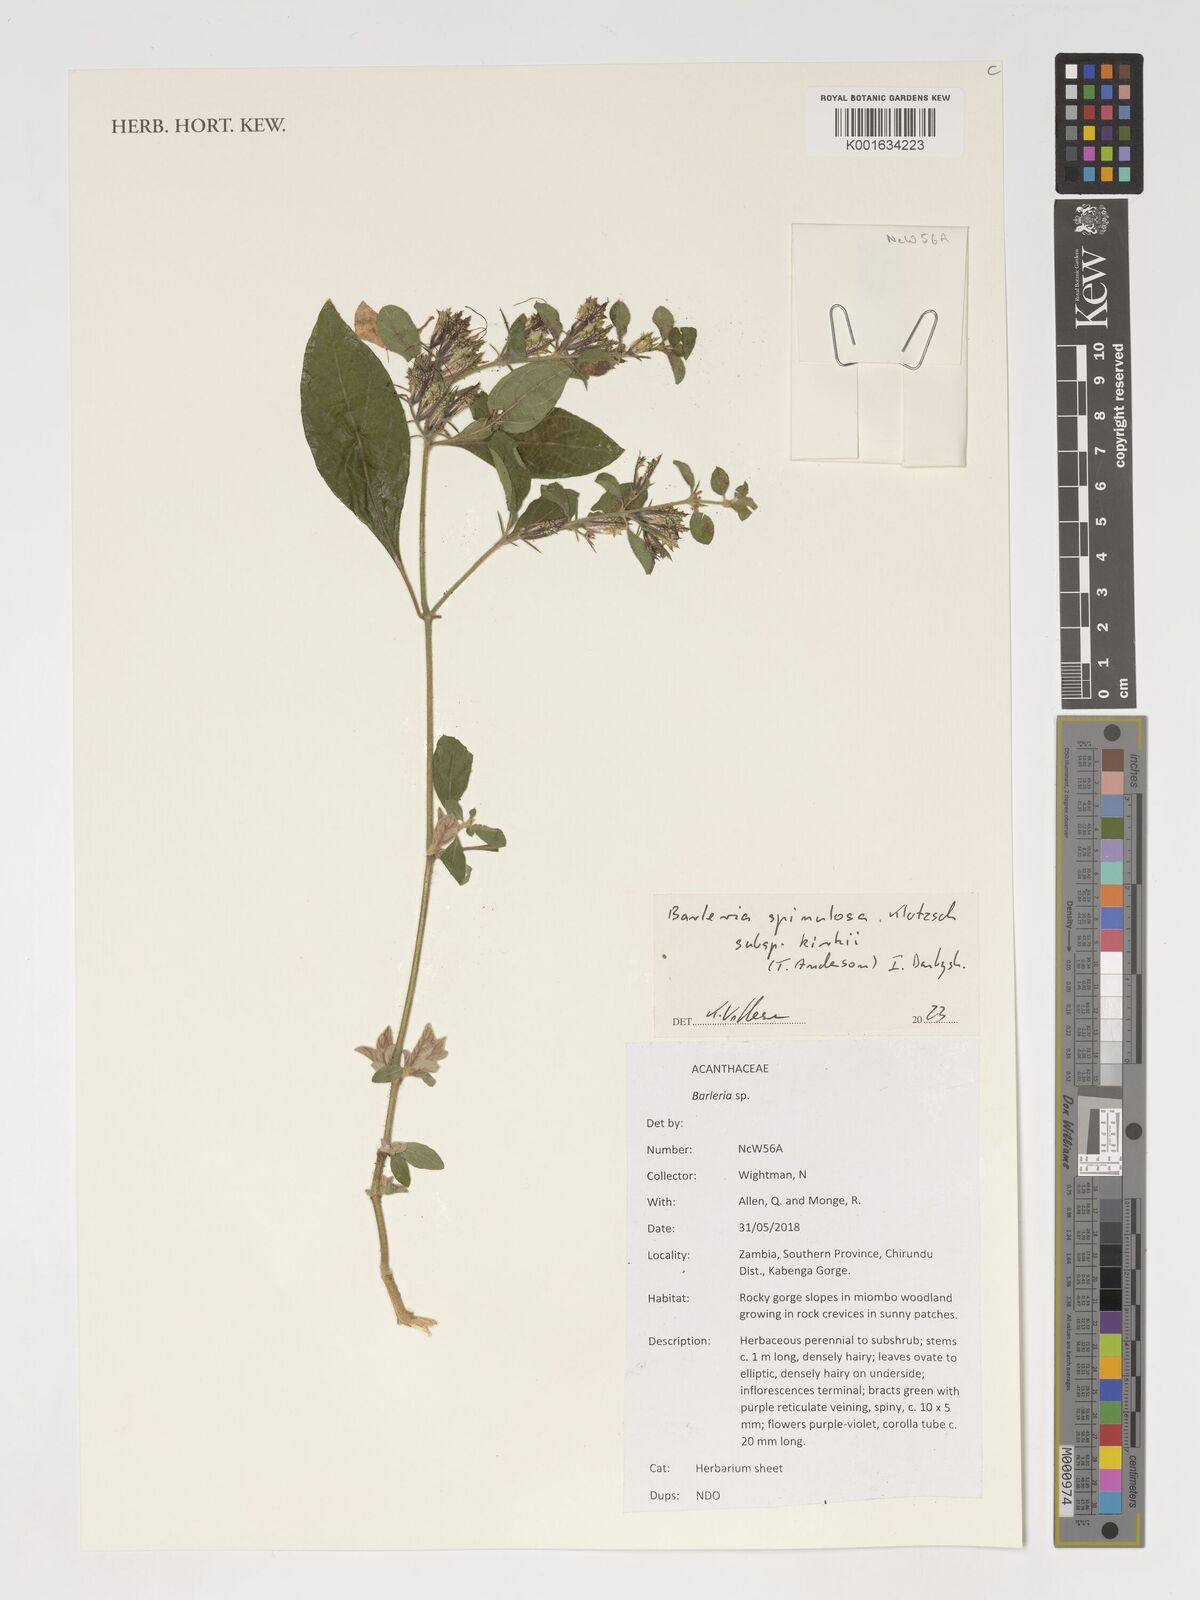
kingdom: Plantae
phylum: Tracheophyta
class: Magnoliopsida
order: Lamiales
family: Acanthaceae
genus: Barleria
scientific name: Barleria spinulosa
